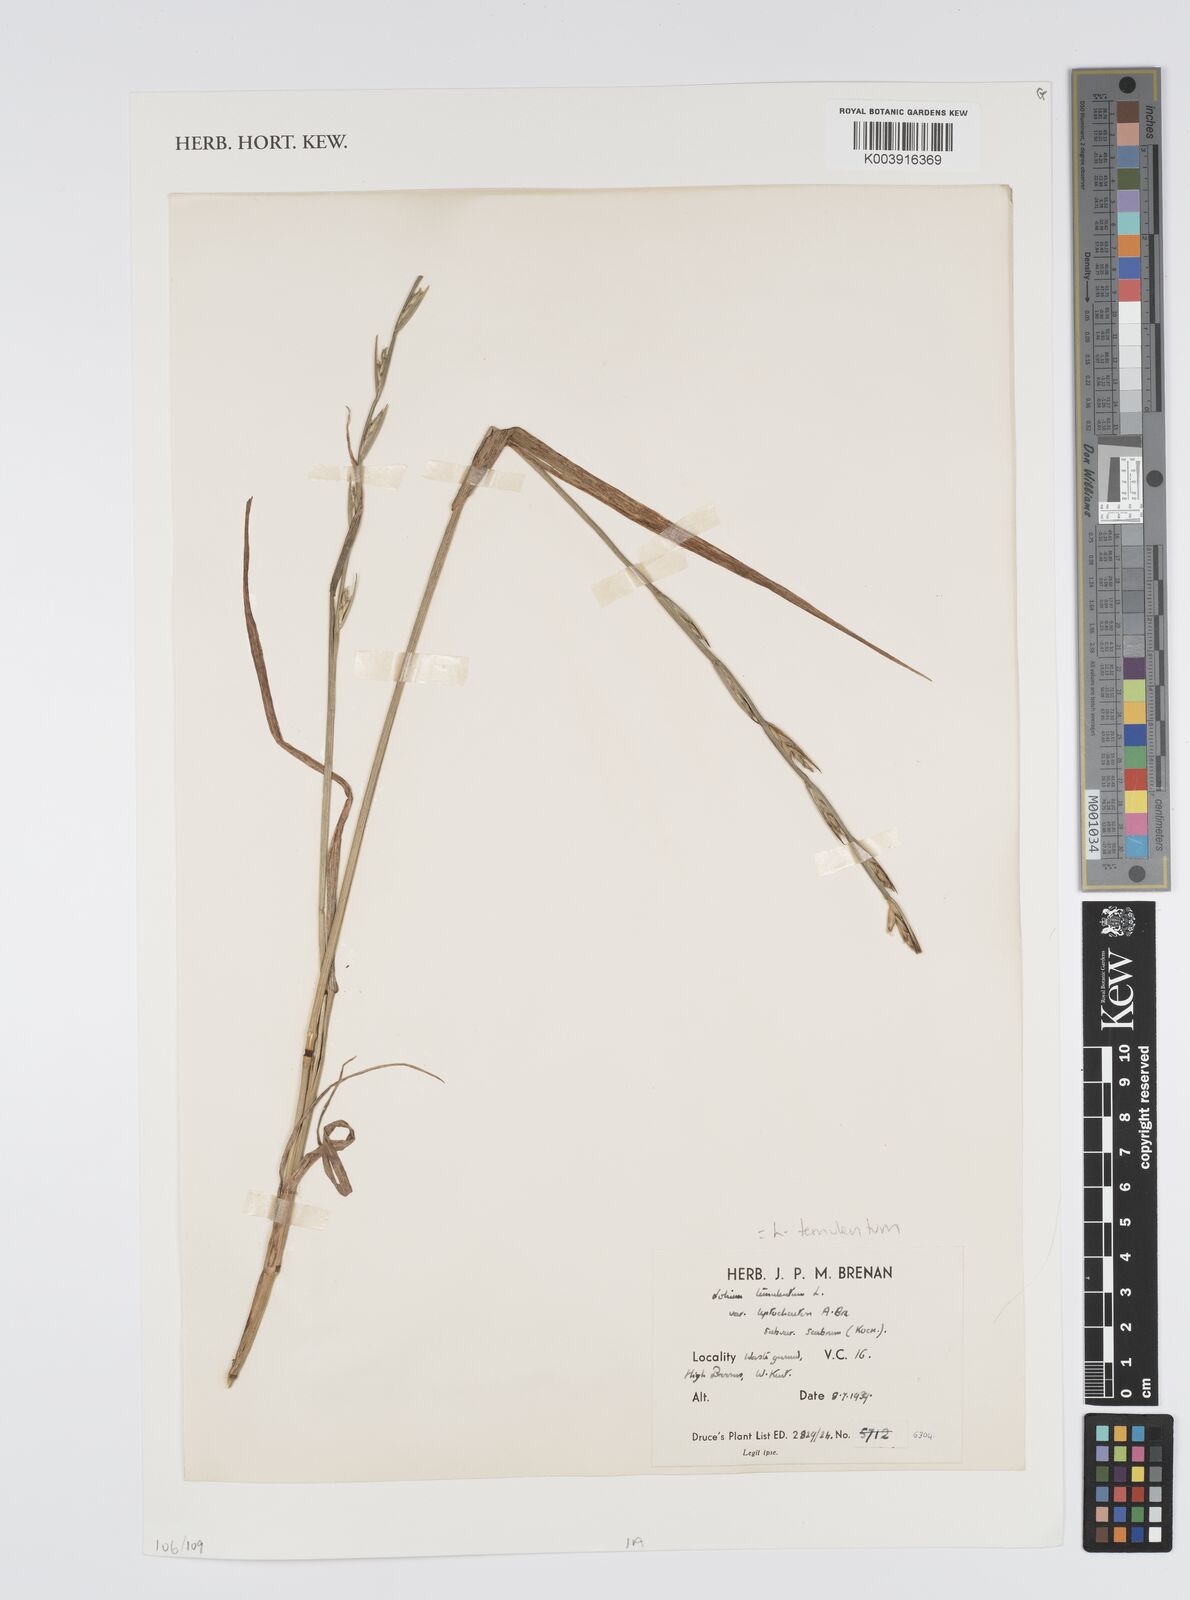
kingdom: Plantae
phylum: Tracheophyta
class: Liliopsida
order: Poales
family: Poaceae
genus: Lolium
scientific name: Lolium temulentum
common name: Darnel
